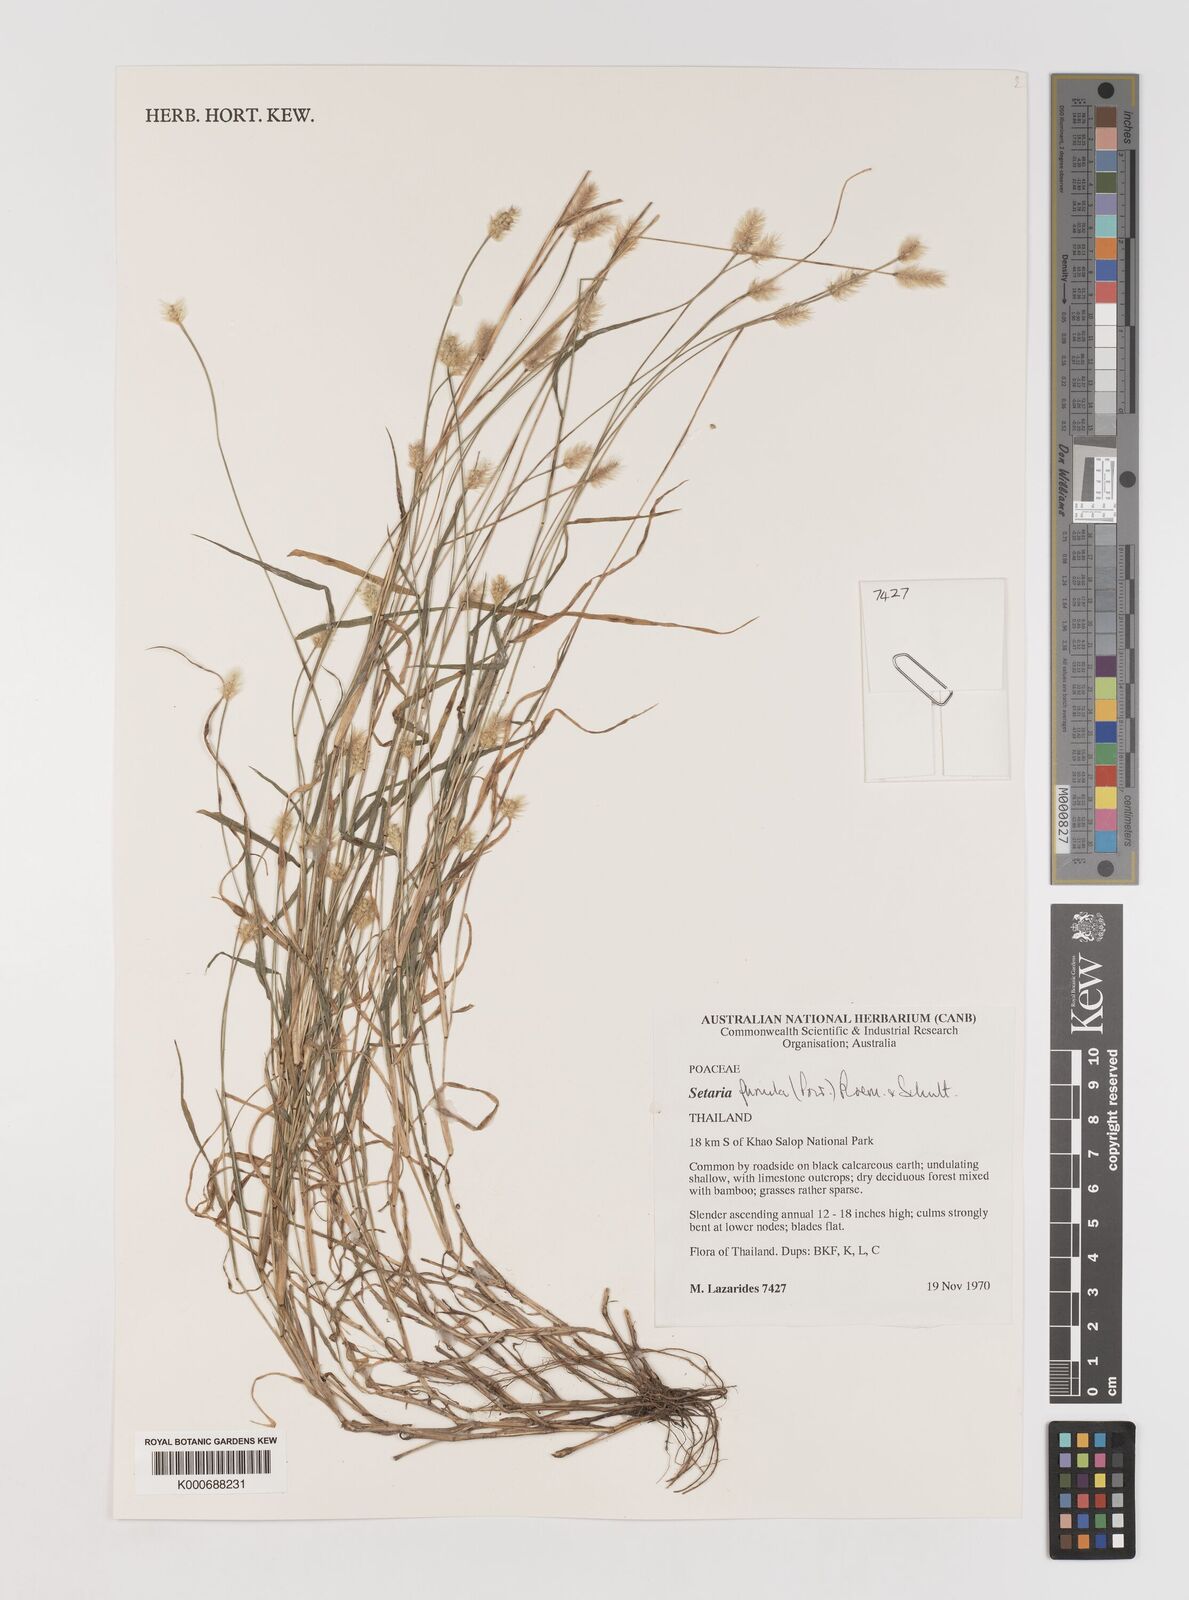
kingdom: Plantae
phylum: Tracheophyta
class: Liliopsida
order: Poales
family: Poaceae
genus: Setaria
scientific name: Setaria pumila
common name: Yellow bristle-grass
